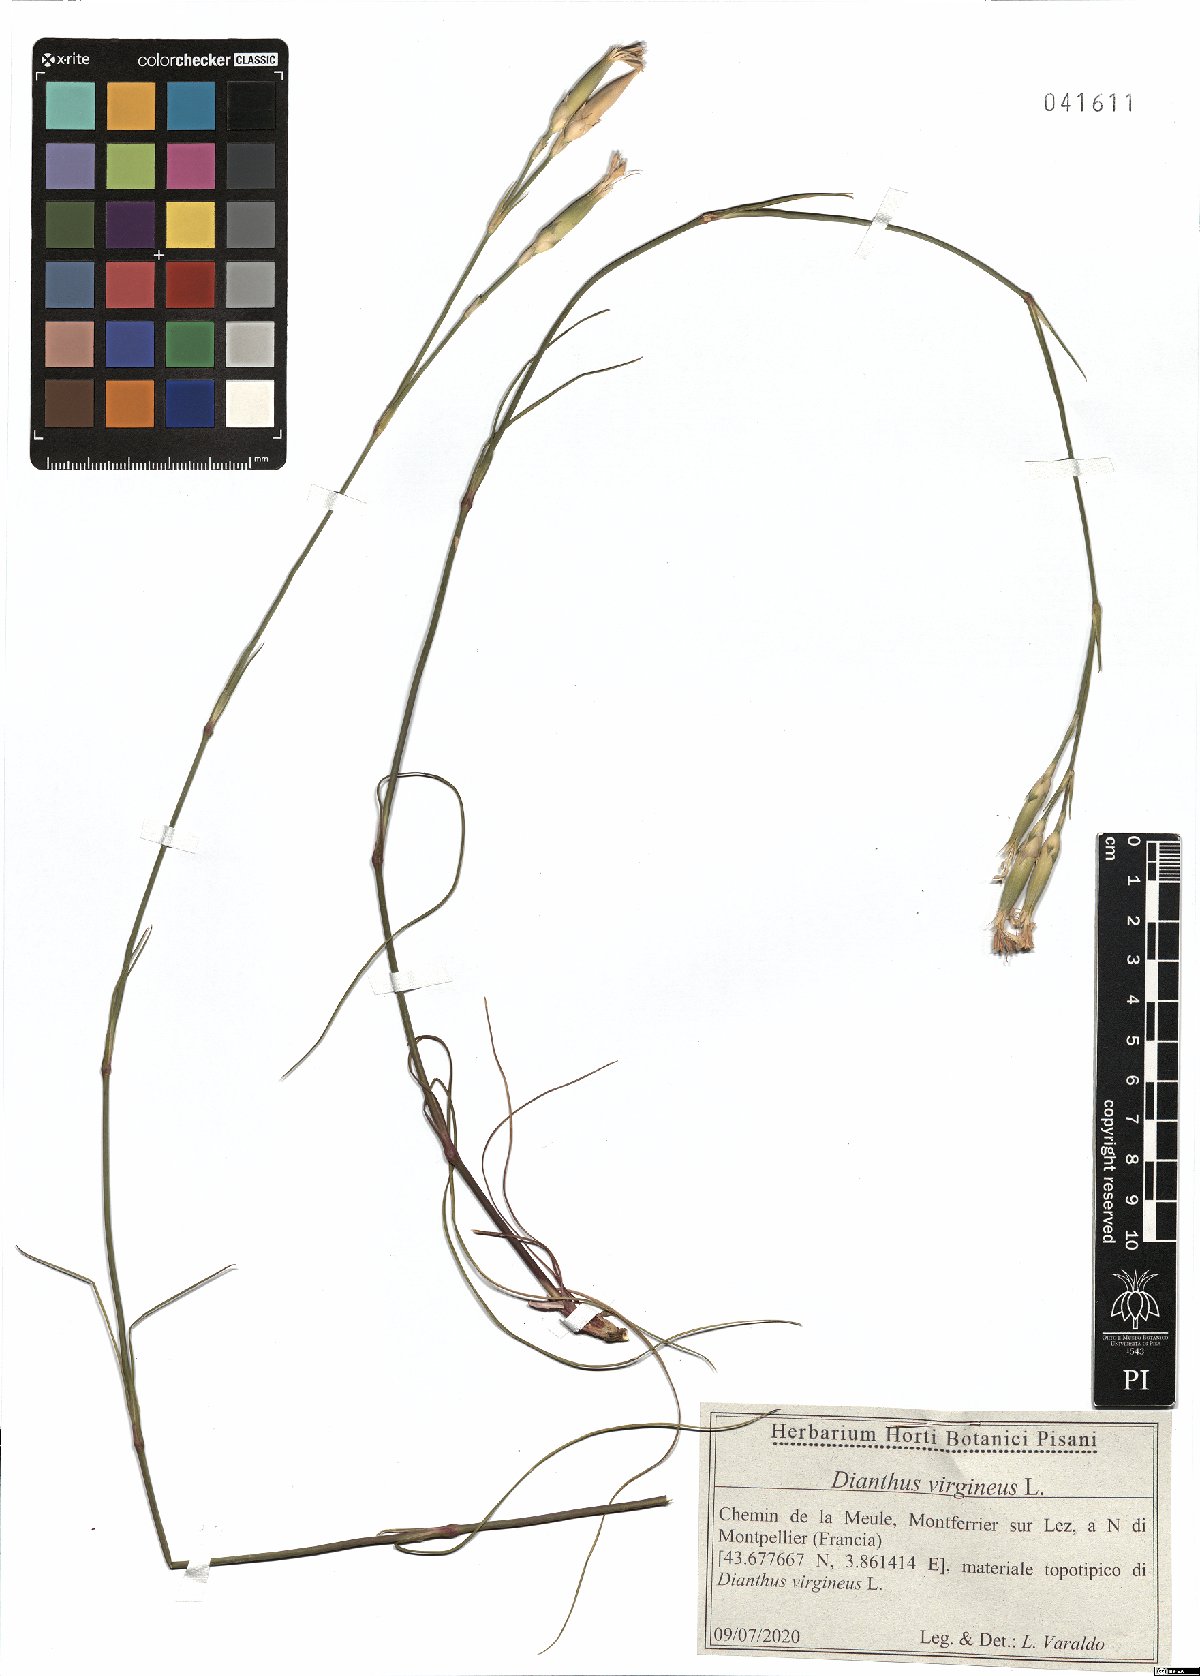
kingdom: Plantae
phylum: Tracheophyta
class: Magnoliopsida
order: Caryophyllales
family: Caryophyllaceae
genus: Dianthus
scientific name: Dianthus virgineus
